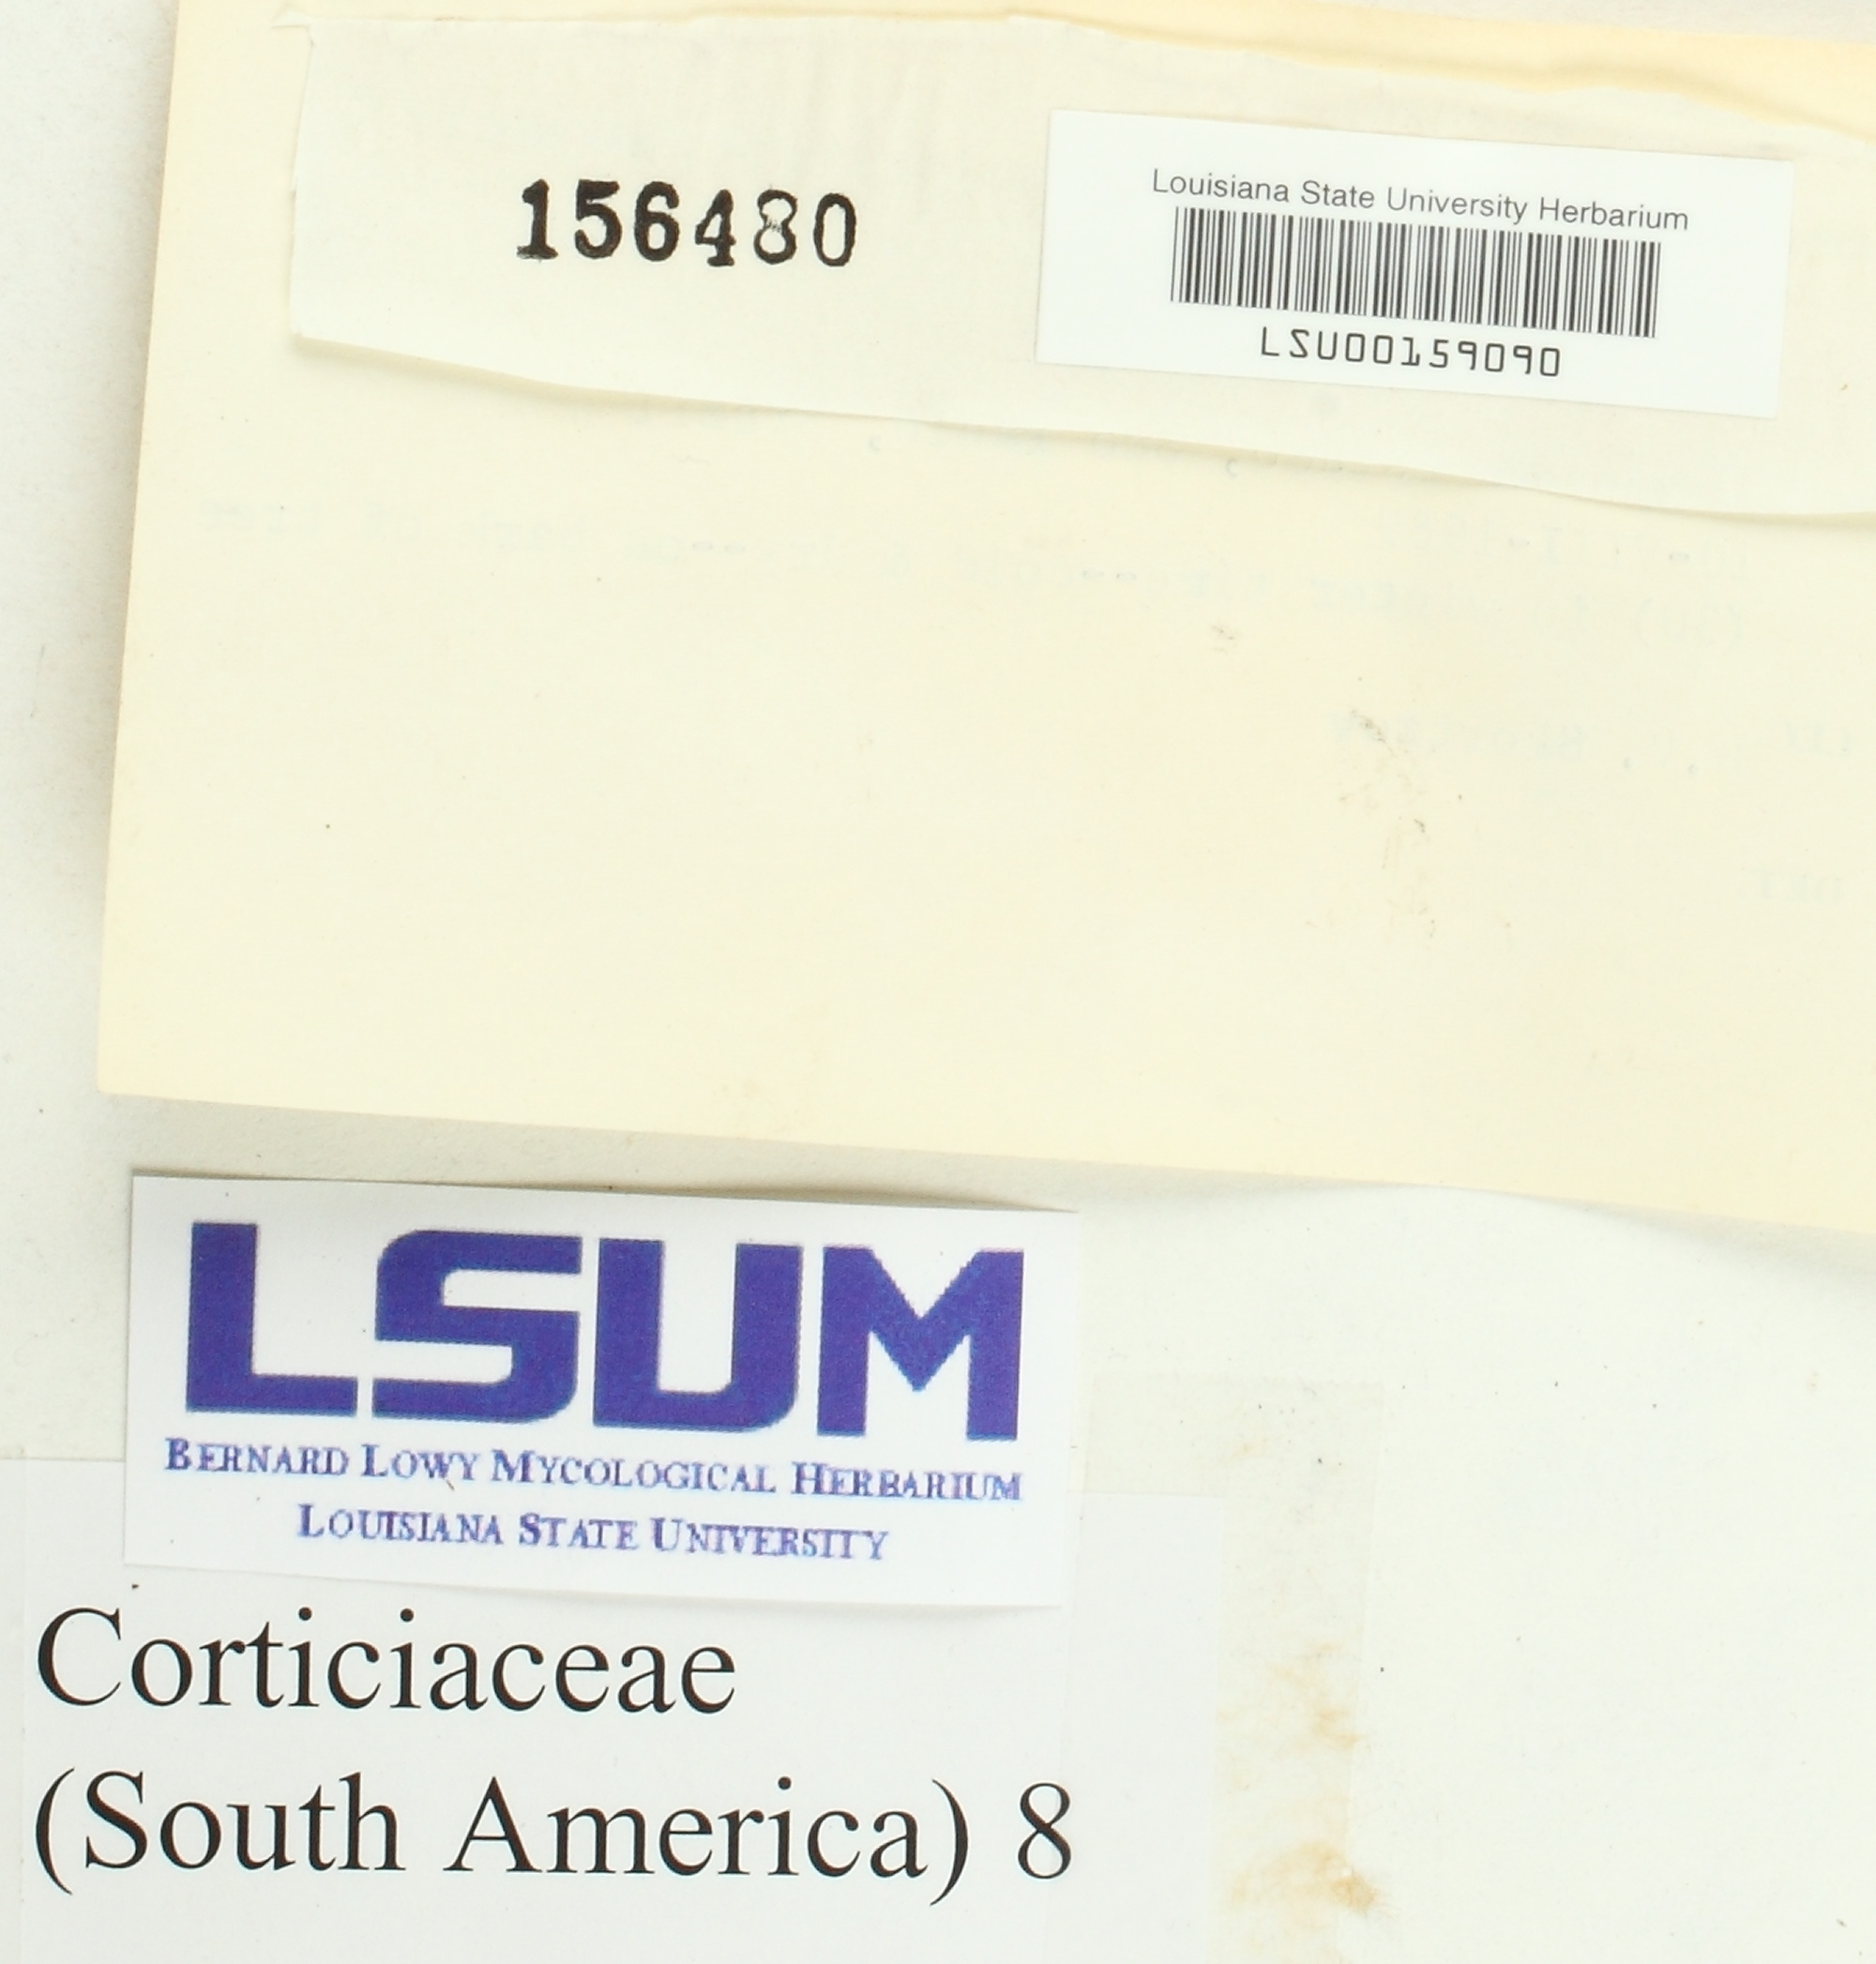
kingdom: Fungi
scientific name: Fungi
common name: Fungi
